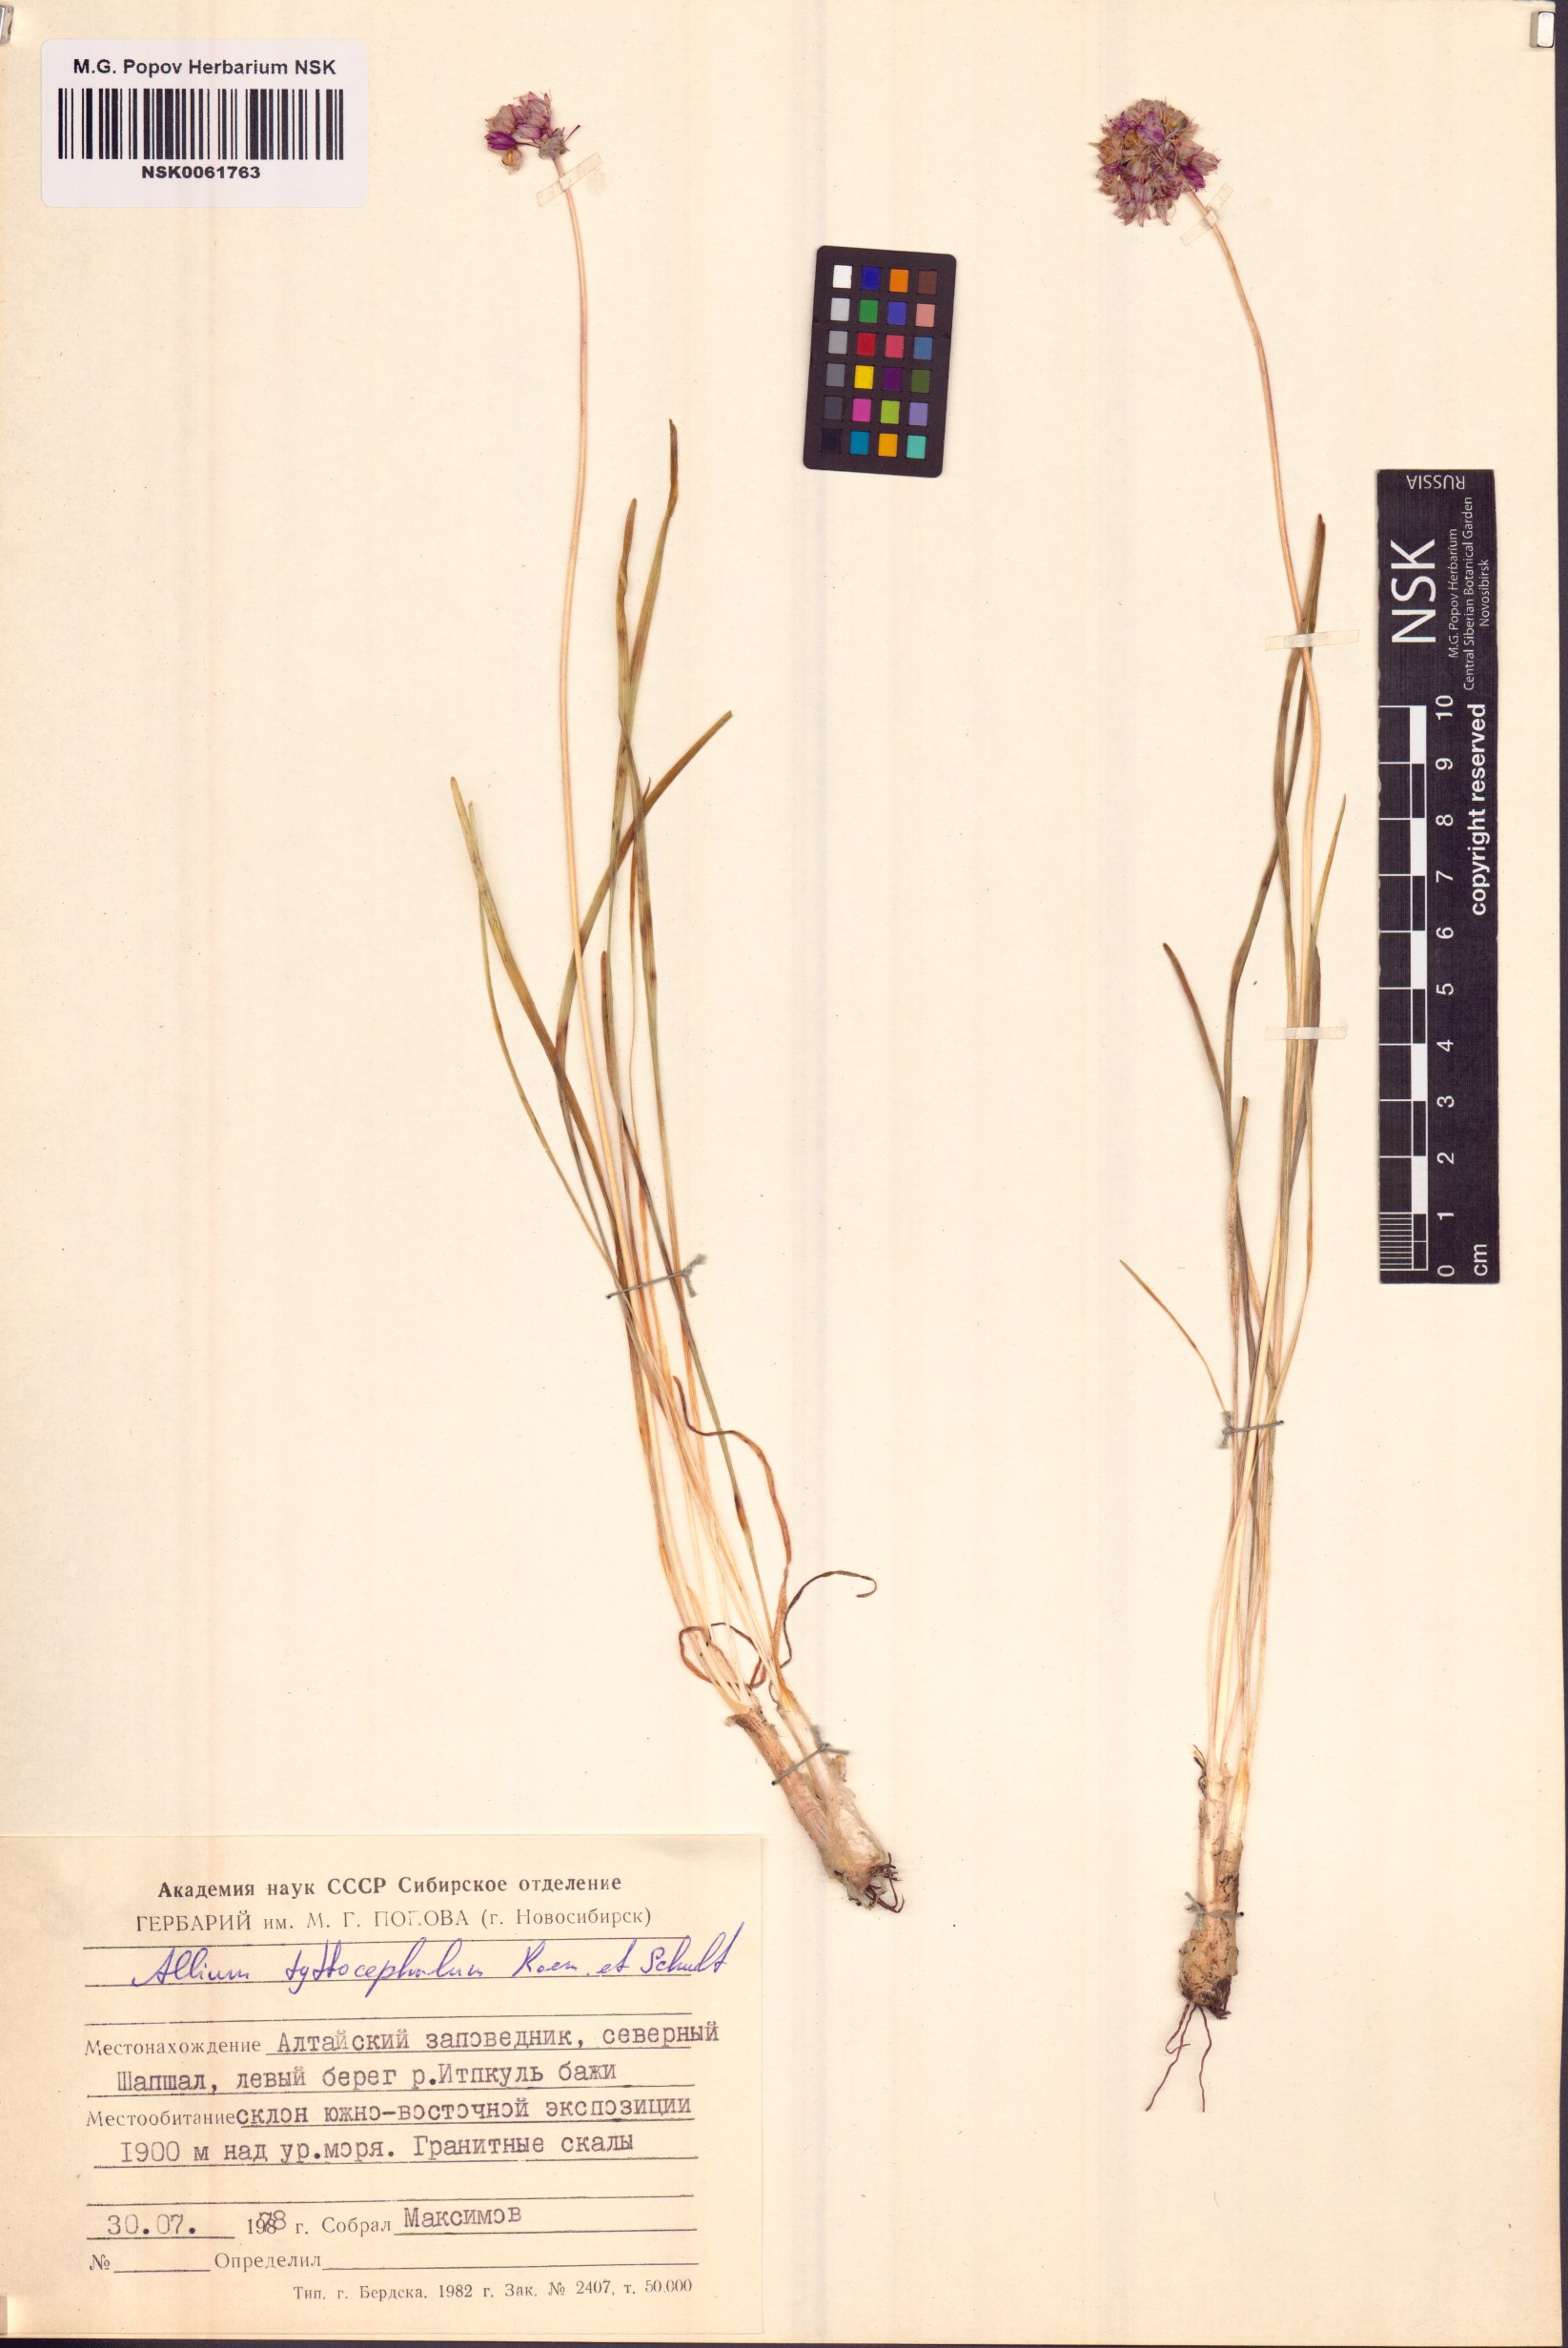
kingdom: Plantae
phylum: Tracheophyta
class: Liliopsida
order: Asparagales
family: Amaryllidaceae
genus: Allium
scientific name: Allium tytthocephalum
